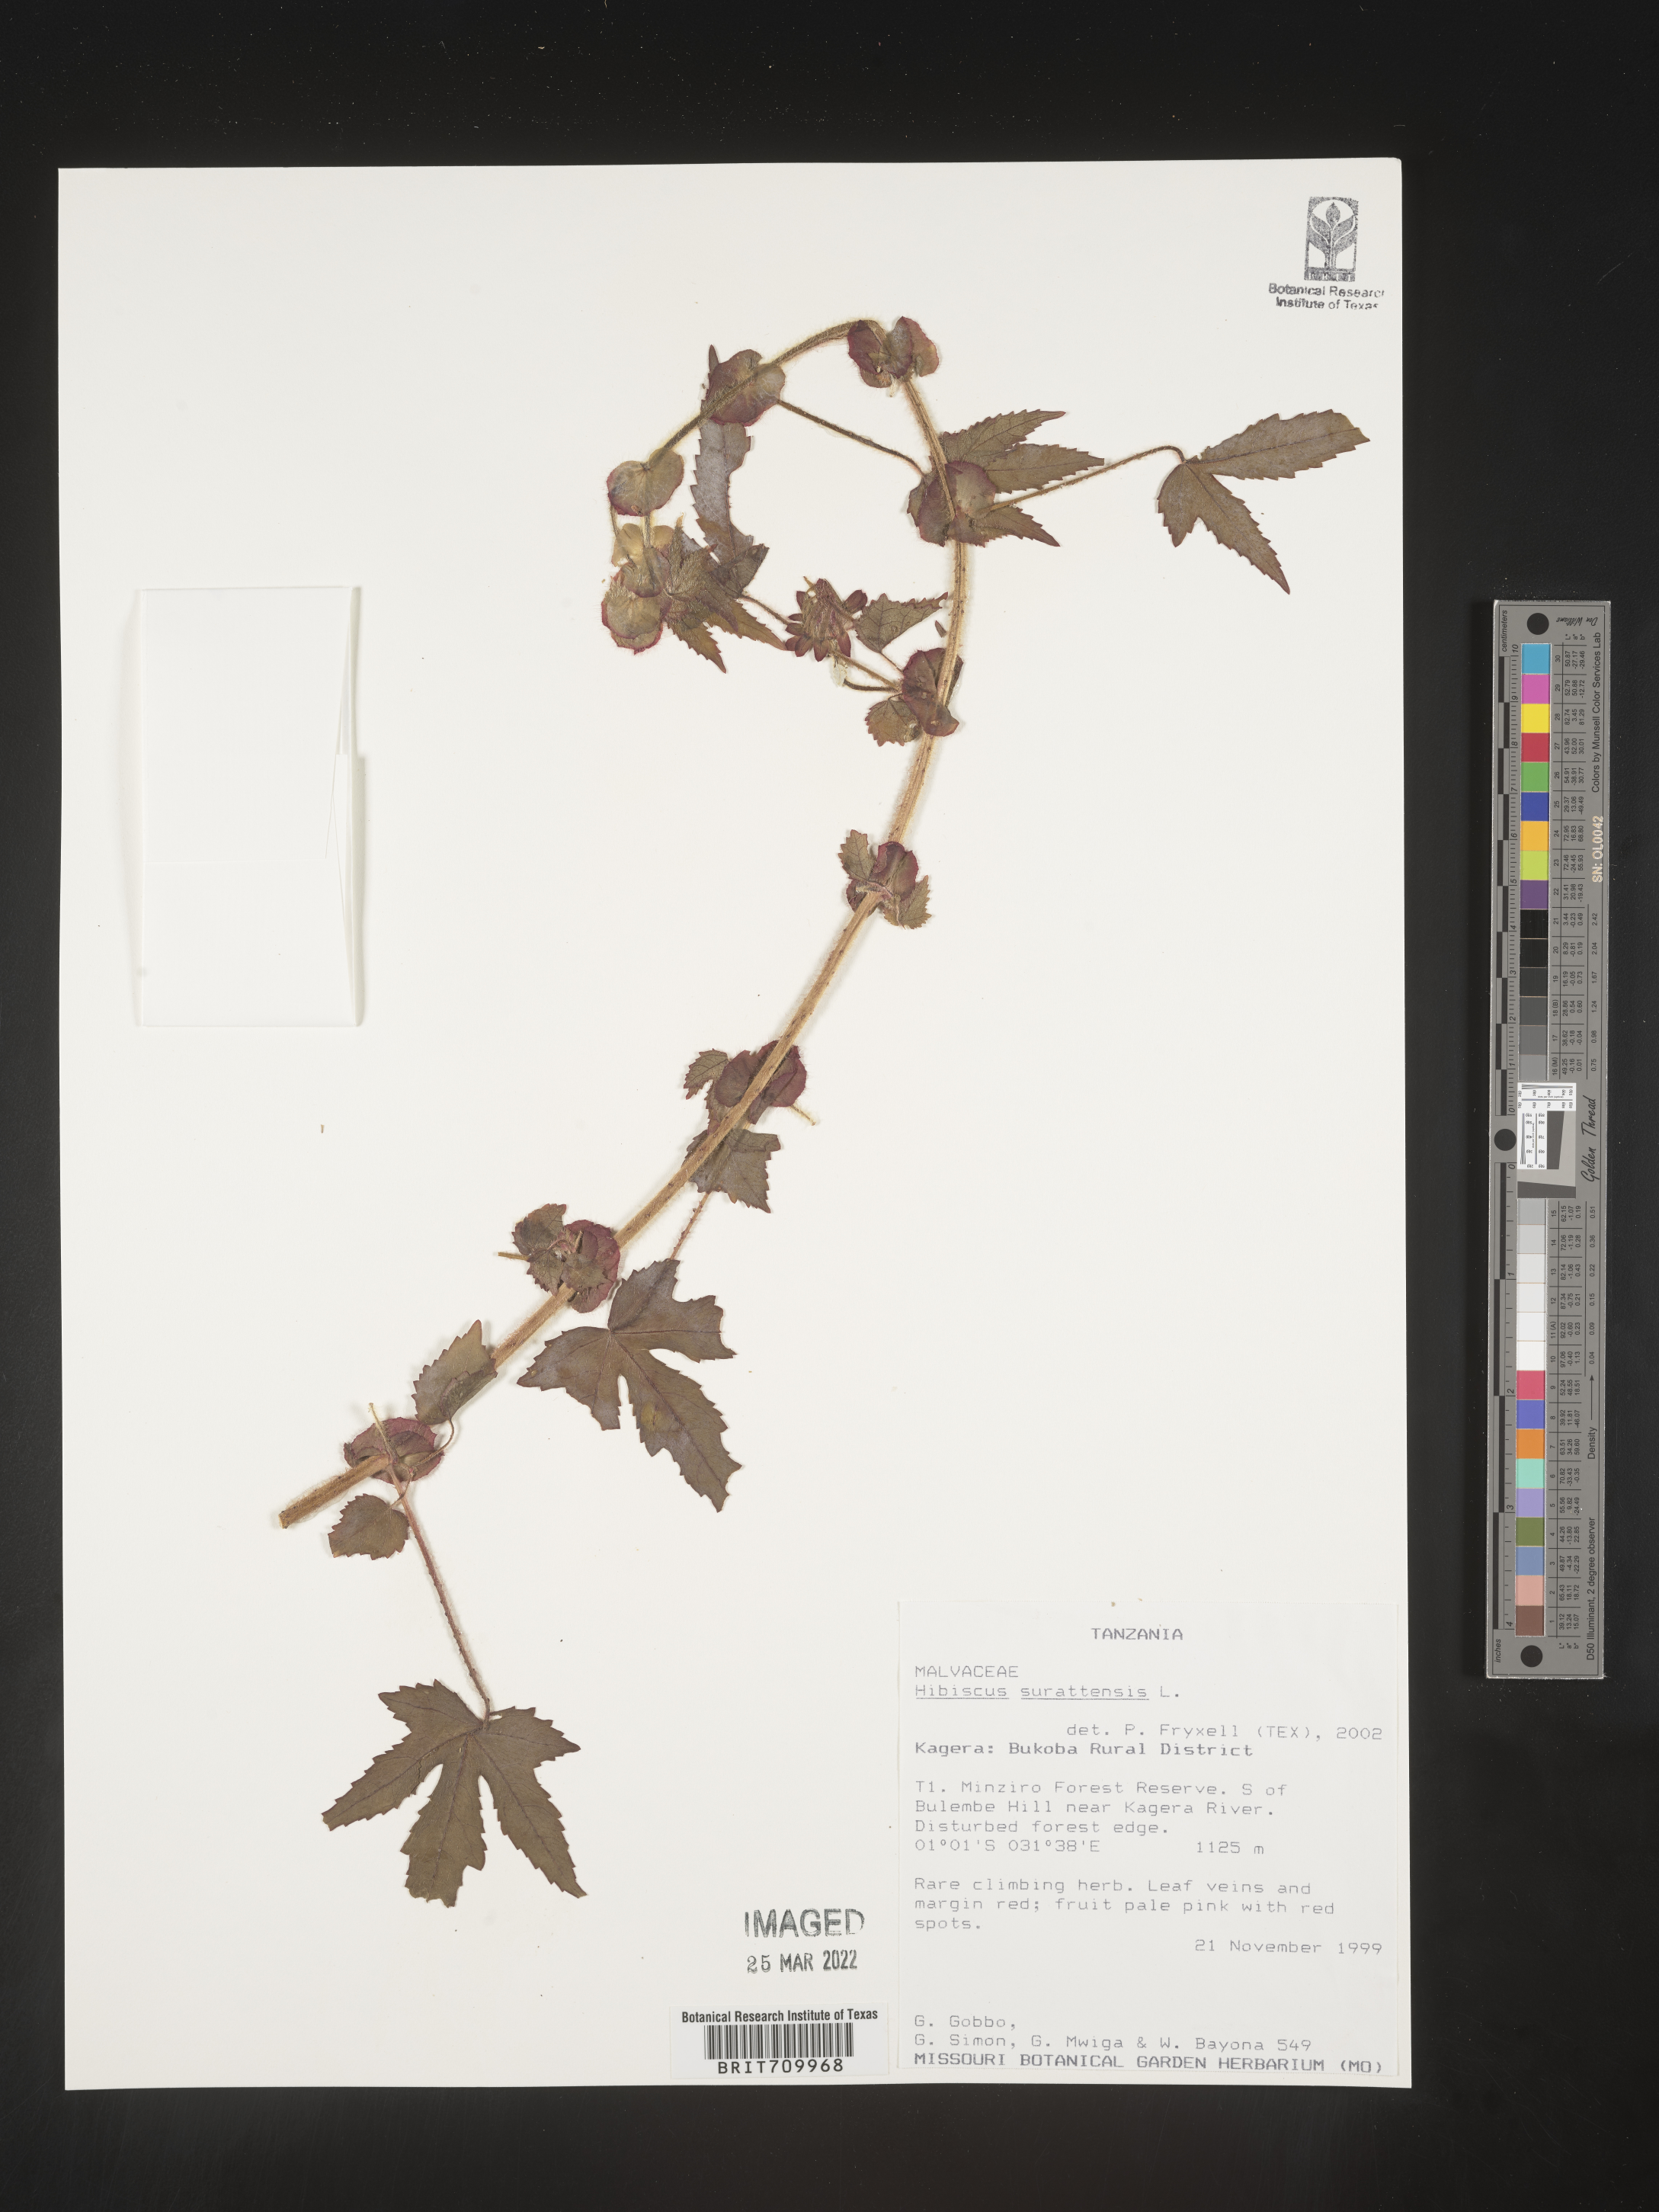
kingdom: Plantae
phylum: Tracheophyta
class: Magnoliopsida
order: Malvales
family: Malvaceae
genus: Hibiscus
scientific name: Hibiscus
